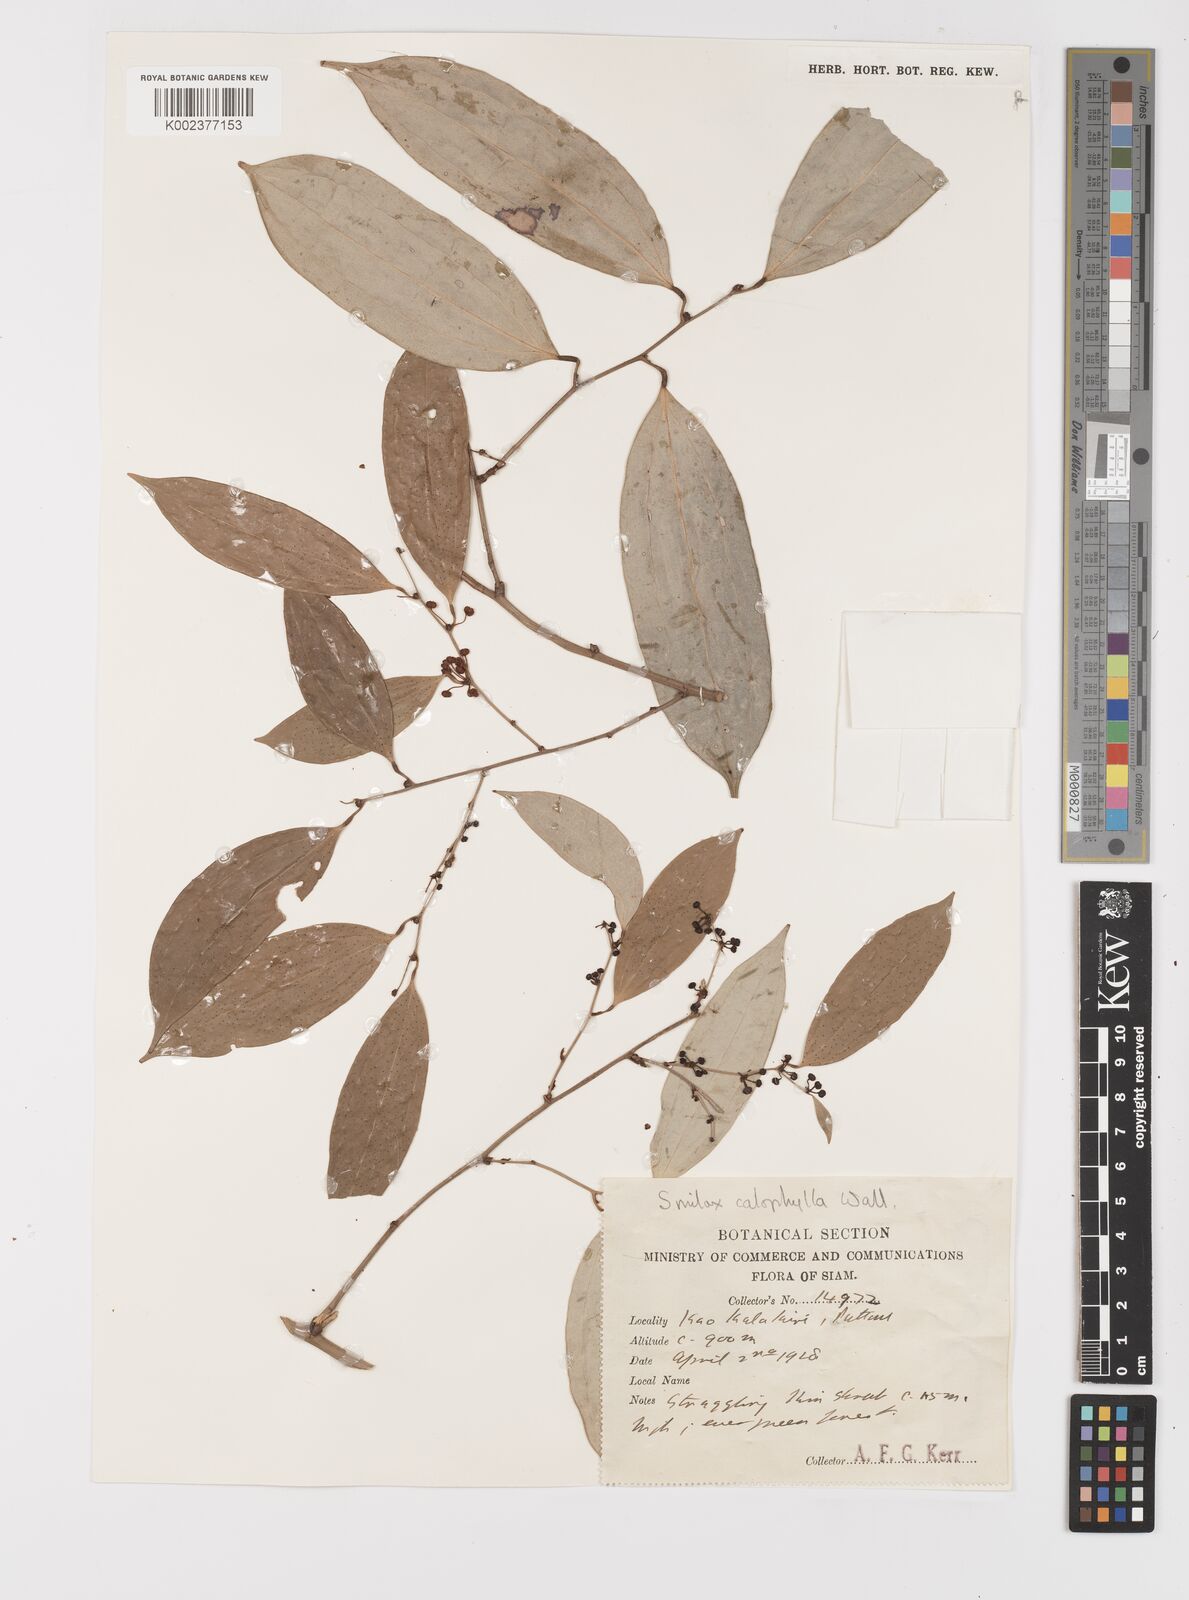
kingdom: Plantae
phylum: Tracheophyta
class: Liliopsida
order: Liliales
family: Smilacaceae
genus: Smilax
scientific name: Smilax calophylla
